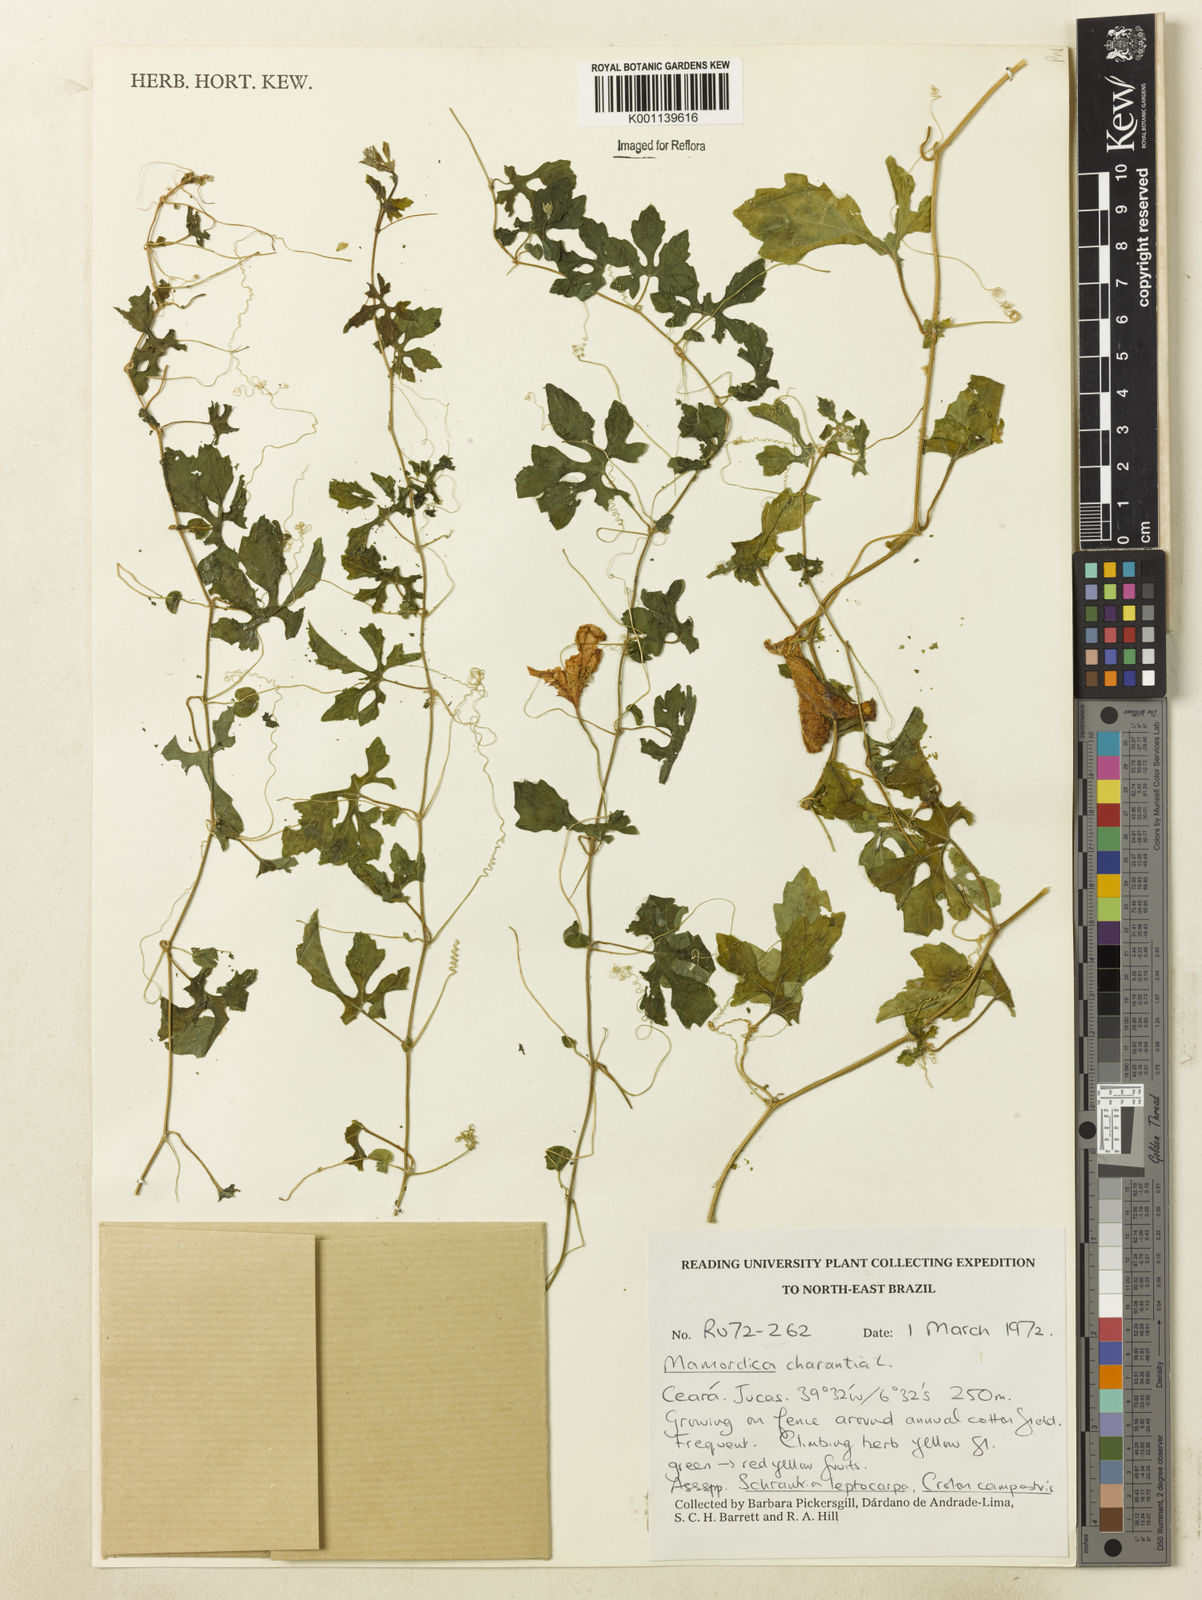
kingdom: Plantae
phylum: Tracheophyta
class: Magnoliopsida
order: Cucurbitales
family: Cucurbitaceae
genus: Momordica
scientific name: Momordica charantia
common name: Balsampear
